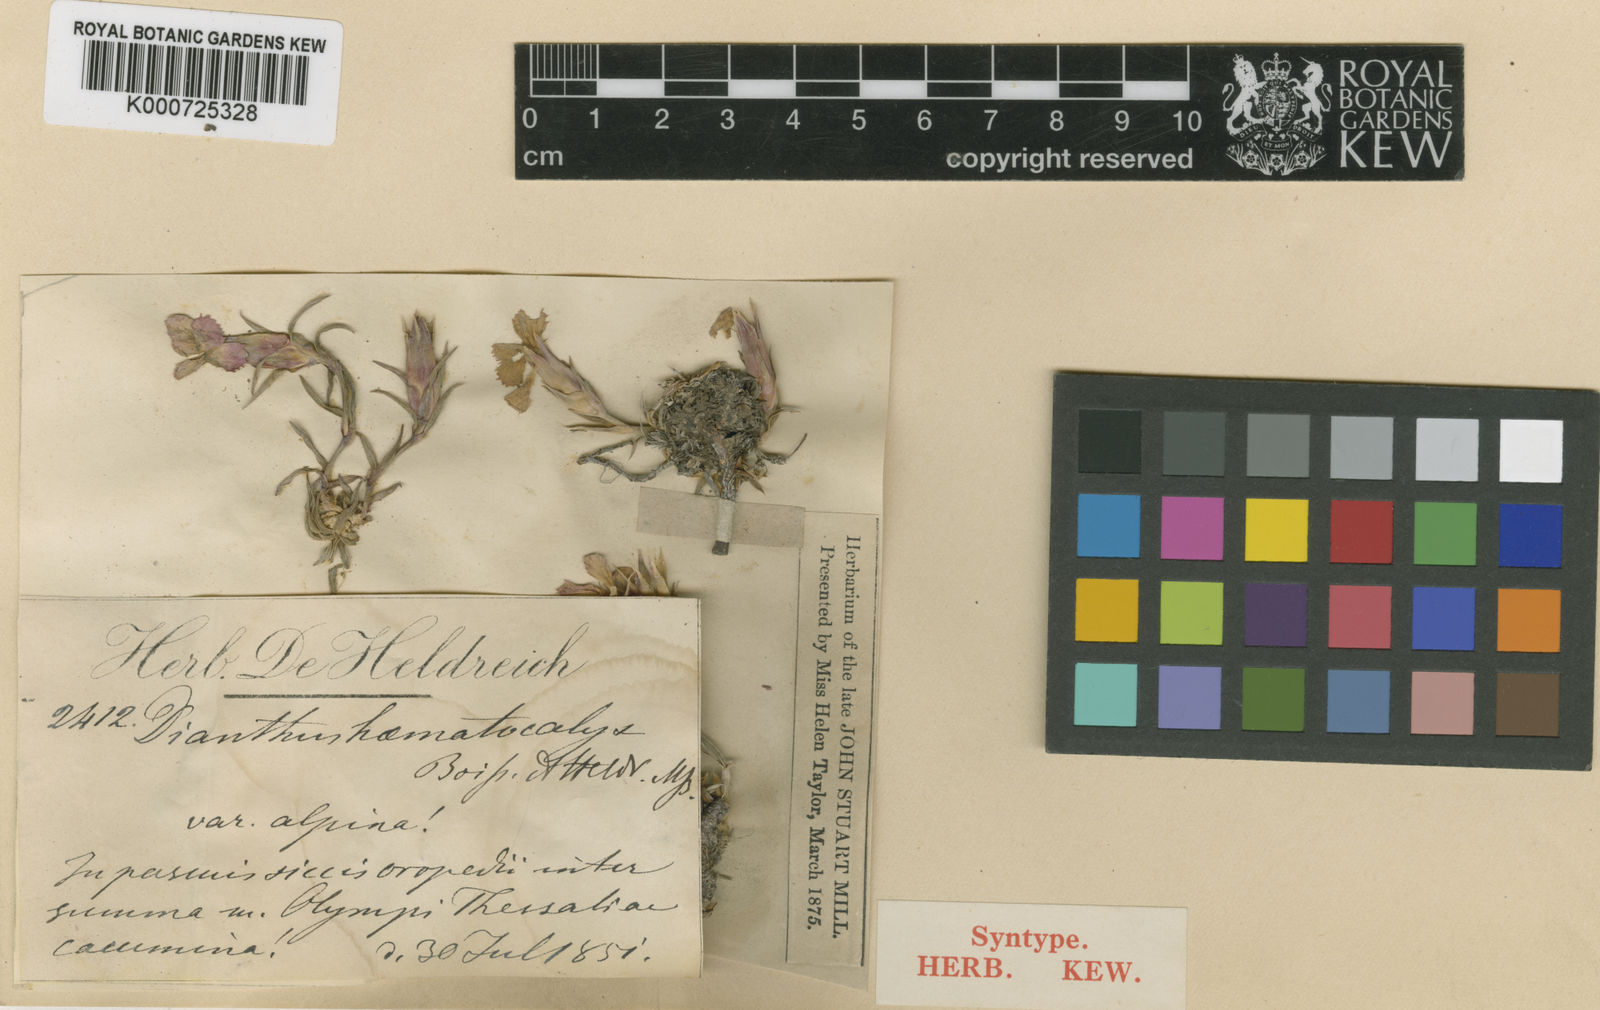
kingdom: Plantae
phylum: Tracheophyta
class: Magnoliopsida
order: Caryophyllales
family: Caryophyllaceae
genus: Dianthus
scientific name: Dianthus chinensis
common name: Rainbow pink
